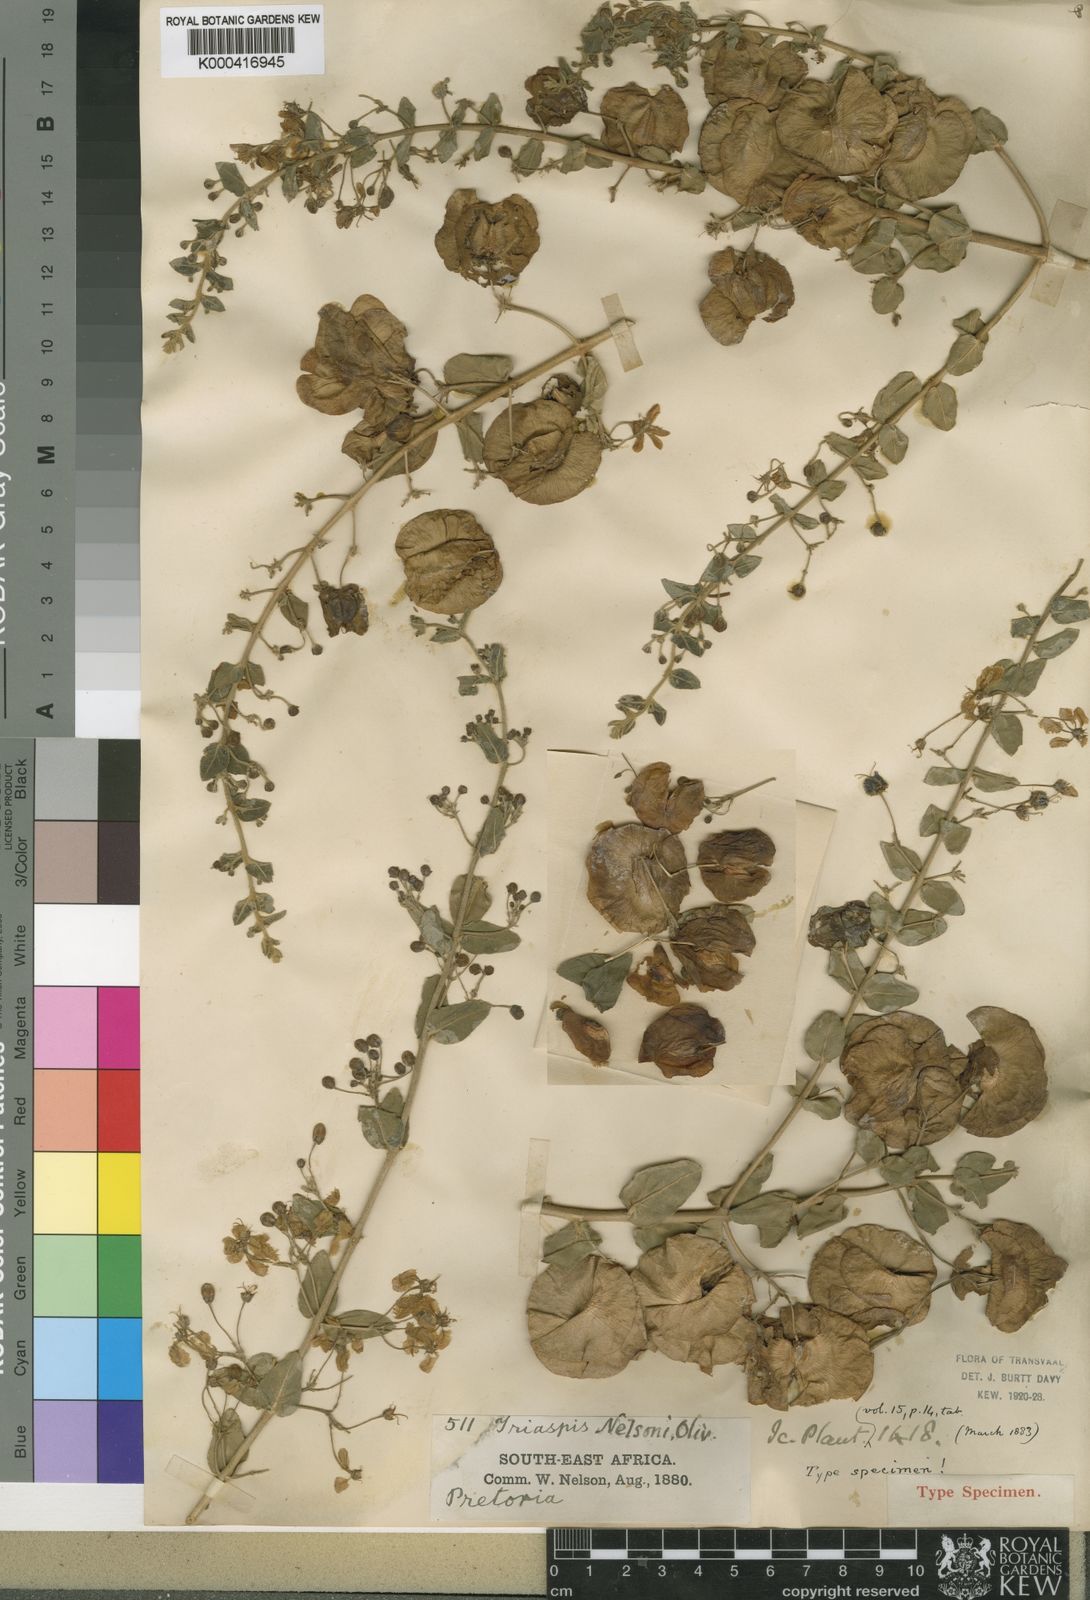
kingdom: Plantae
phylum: Tracheophyta
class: Magnoliopsida
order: Malpighiales
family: Malpighiaceae
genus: Triaspis
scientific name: Triaspis hypericoides
